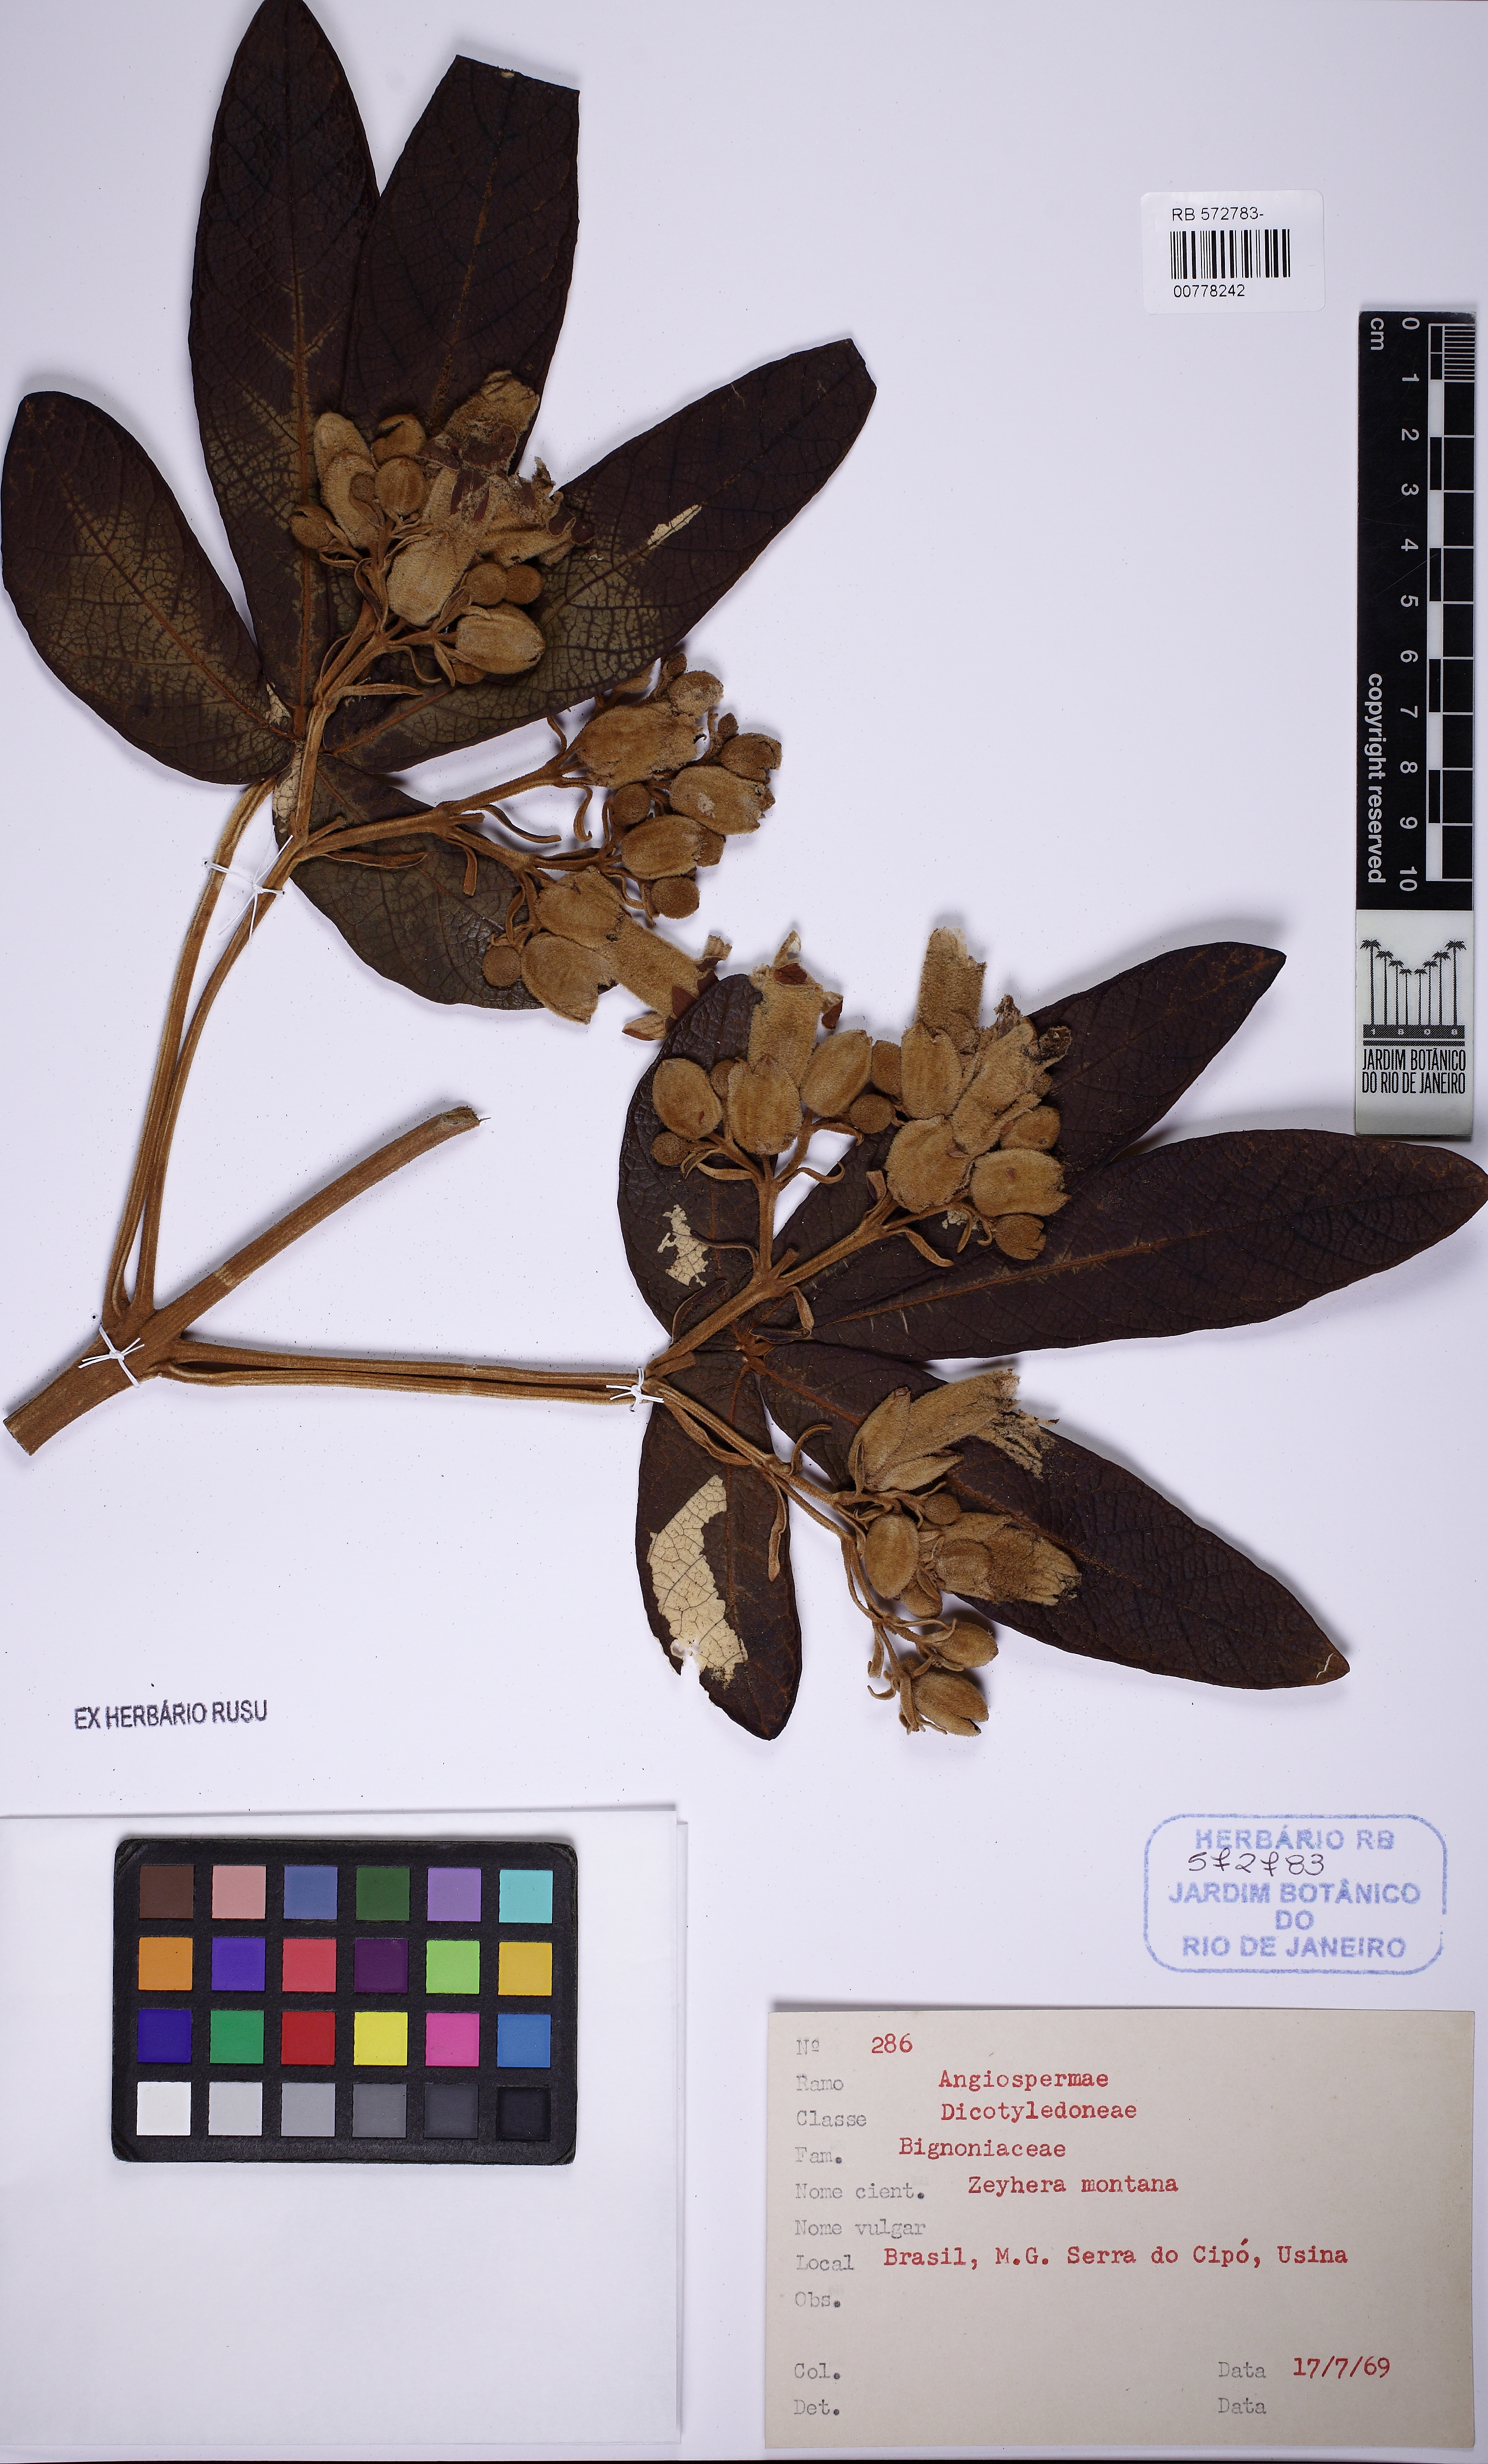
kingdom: Plantae
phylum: Tracheophyta
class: Magnoliopsida
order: Lamiales
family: Bignoniaceae
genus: Zeyheria
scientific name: Zeyheria montana
